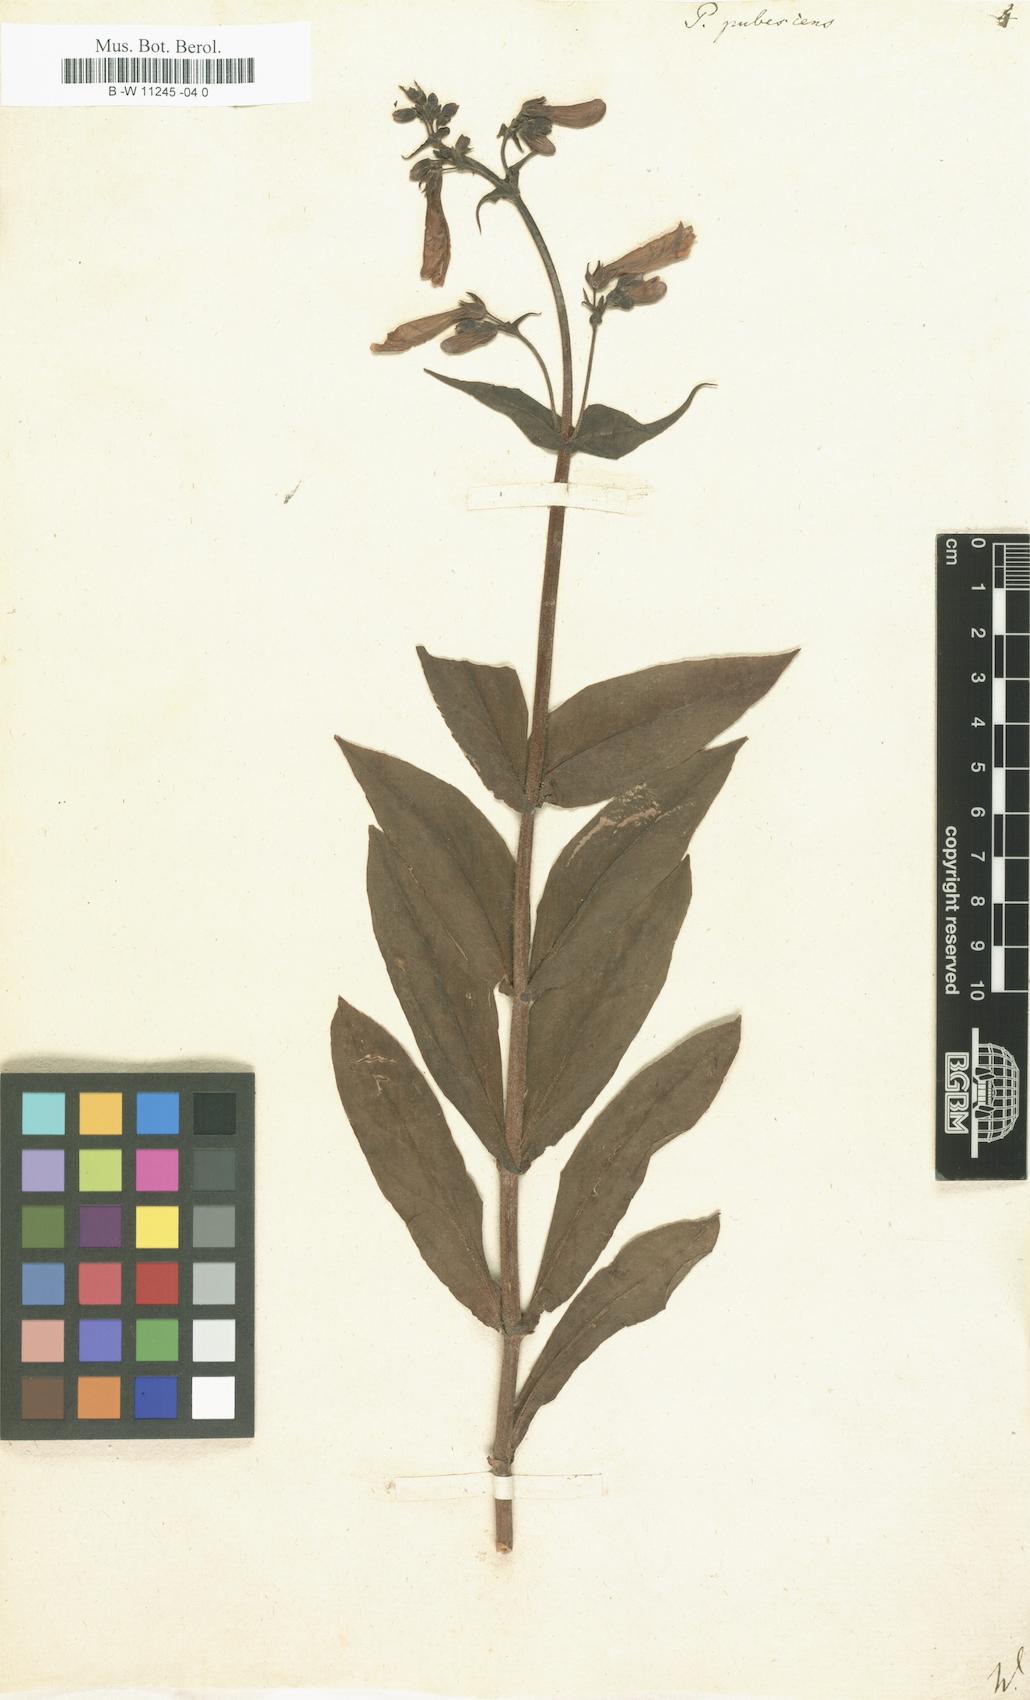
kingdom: Plantae
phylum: Tracheophyta
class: Magnoliopsida
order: Lamiales
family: Scrophulariaceae
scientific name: Scrophulariaceae
